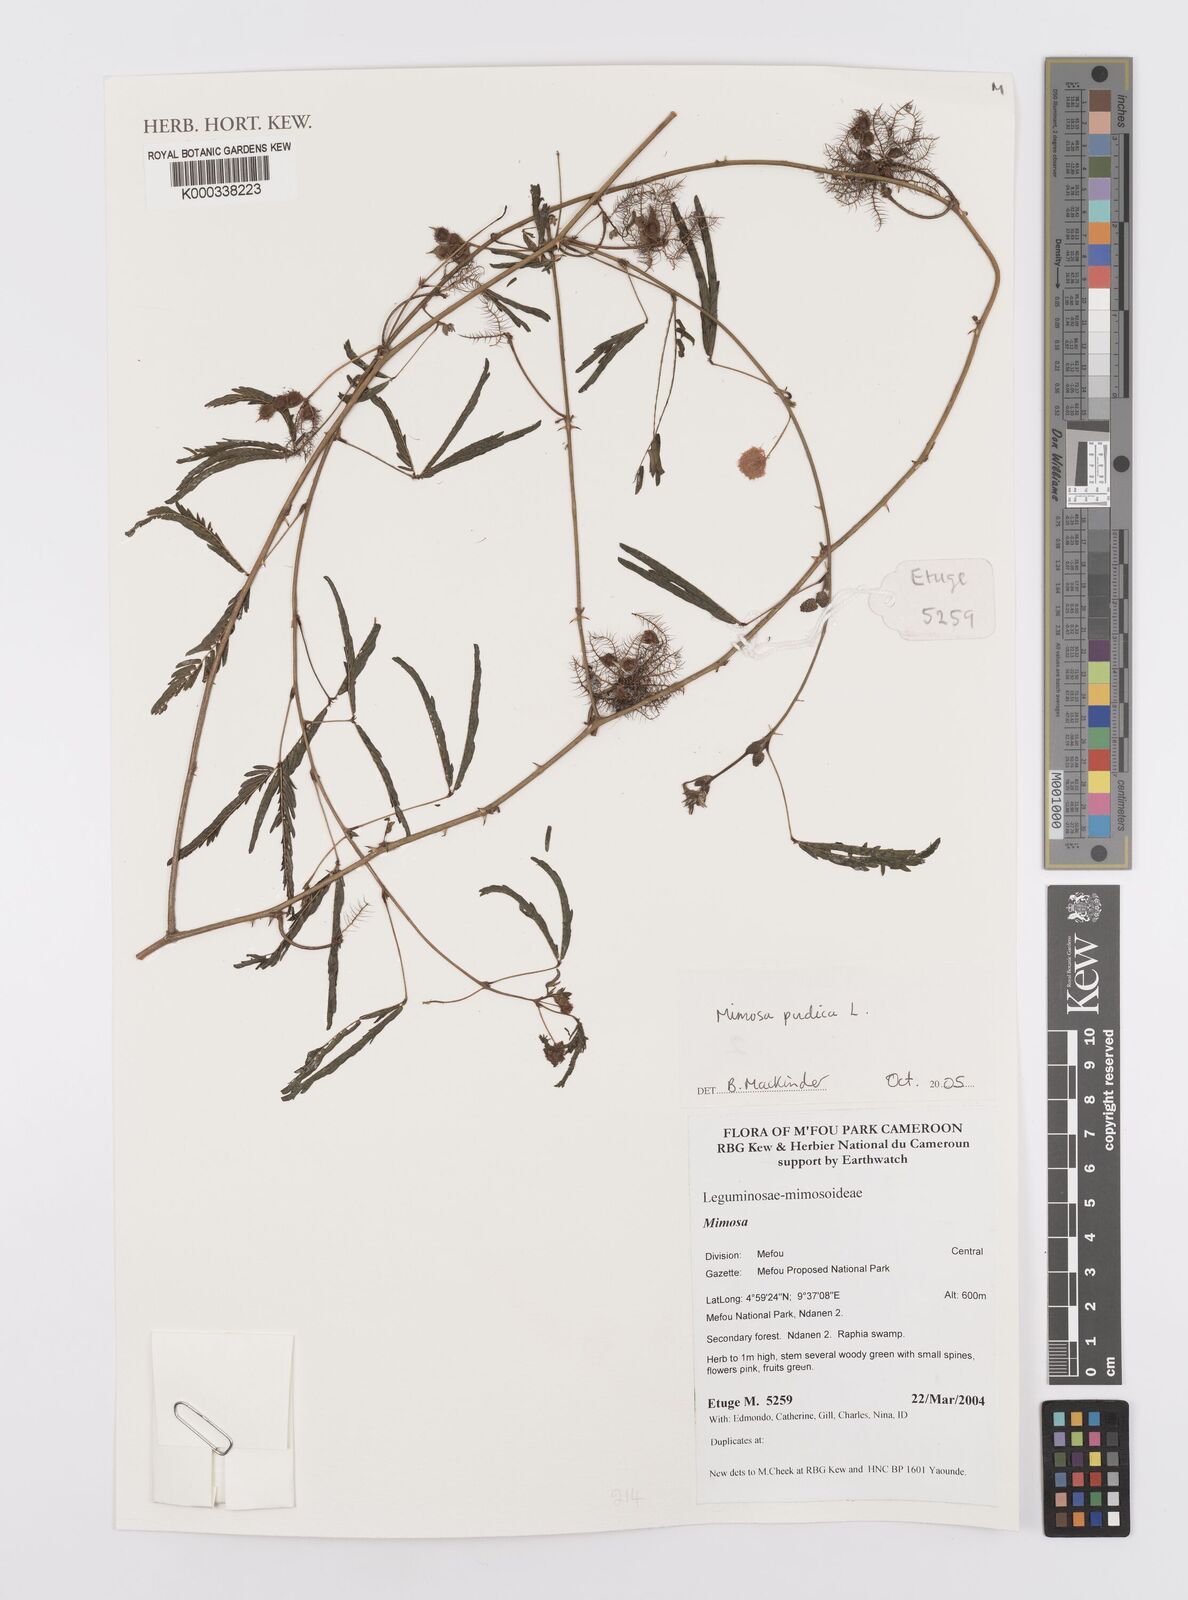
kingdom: Plantae
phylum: Tracheophyta
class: Magnoliopsida
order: Fabales
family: Fabaceae
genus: Mimosa
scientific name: Mimosa pudica
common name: Sensitive plant
